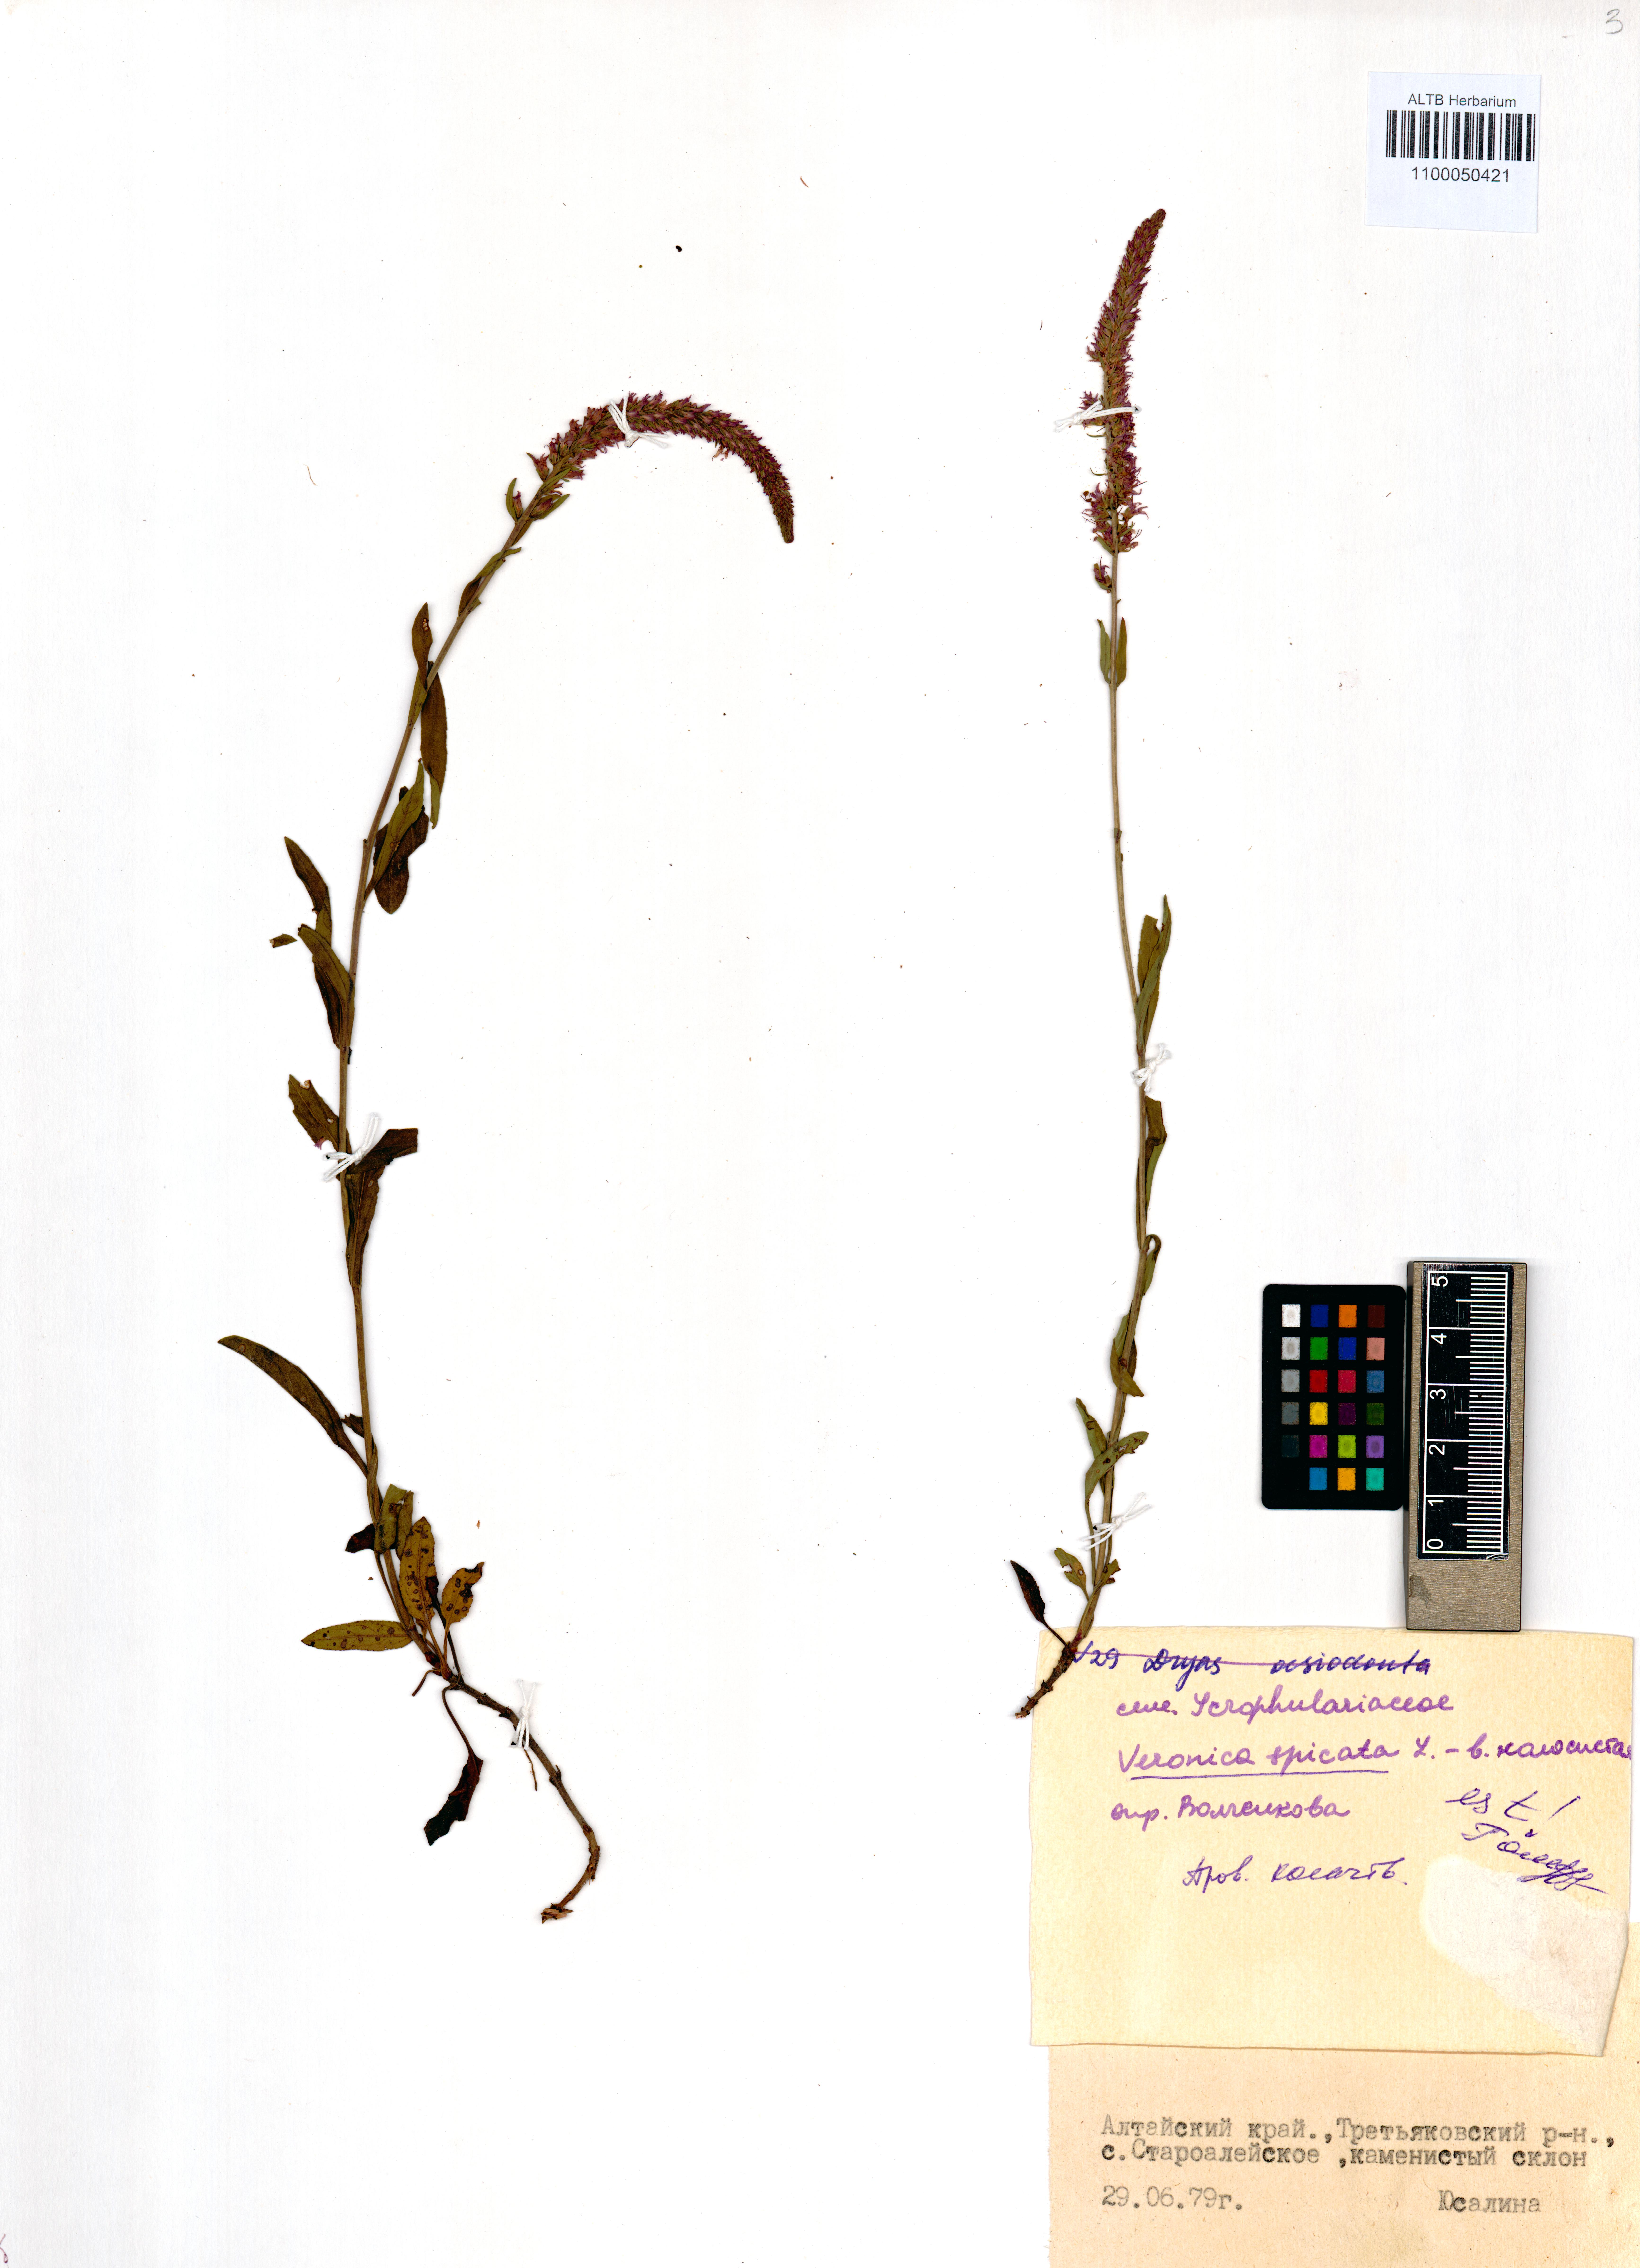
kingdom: Plantae
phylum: Tracheophyta
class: Magnoliopsida
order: Lamiales
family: Plantaginaceae
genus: Veronica
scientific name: Veronica spicata
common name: Spiked speedwell
